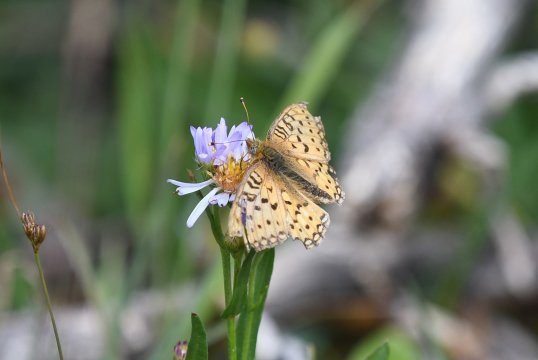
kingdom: Animalia
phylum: Arthropoda
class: Insecta
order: Lepidoptera
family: Nymphalidae
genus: Speyeria
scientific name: Speyeria mormonia
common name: Mormon Fritillary
